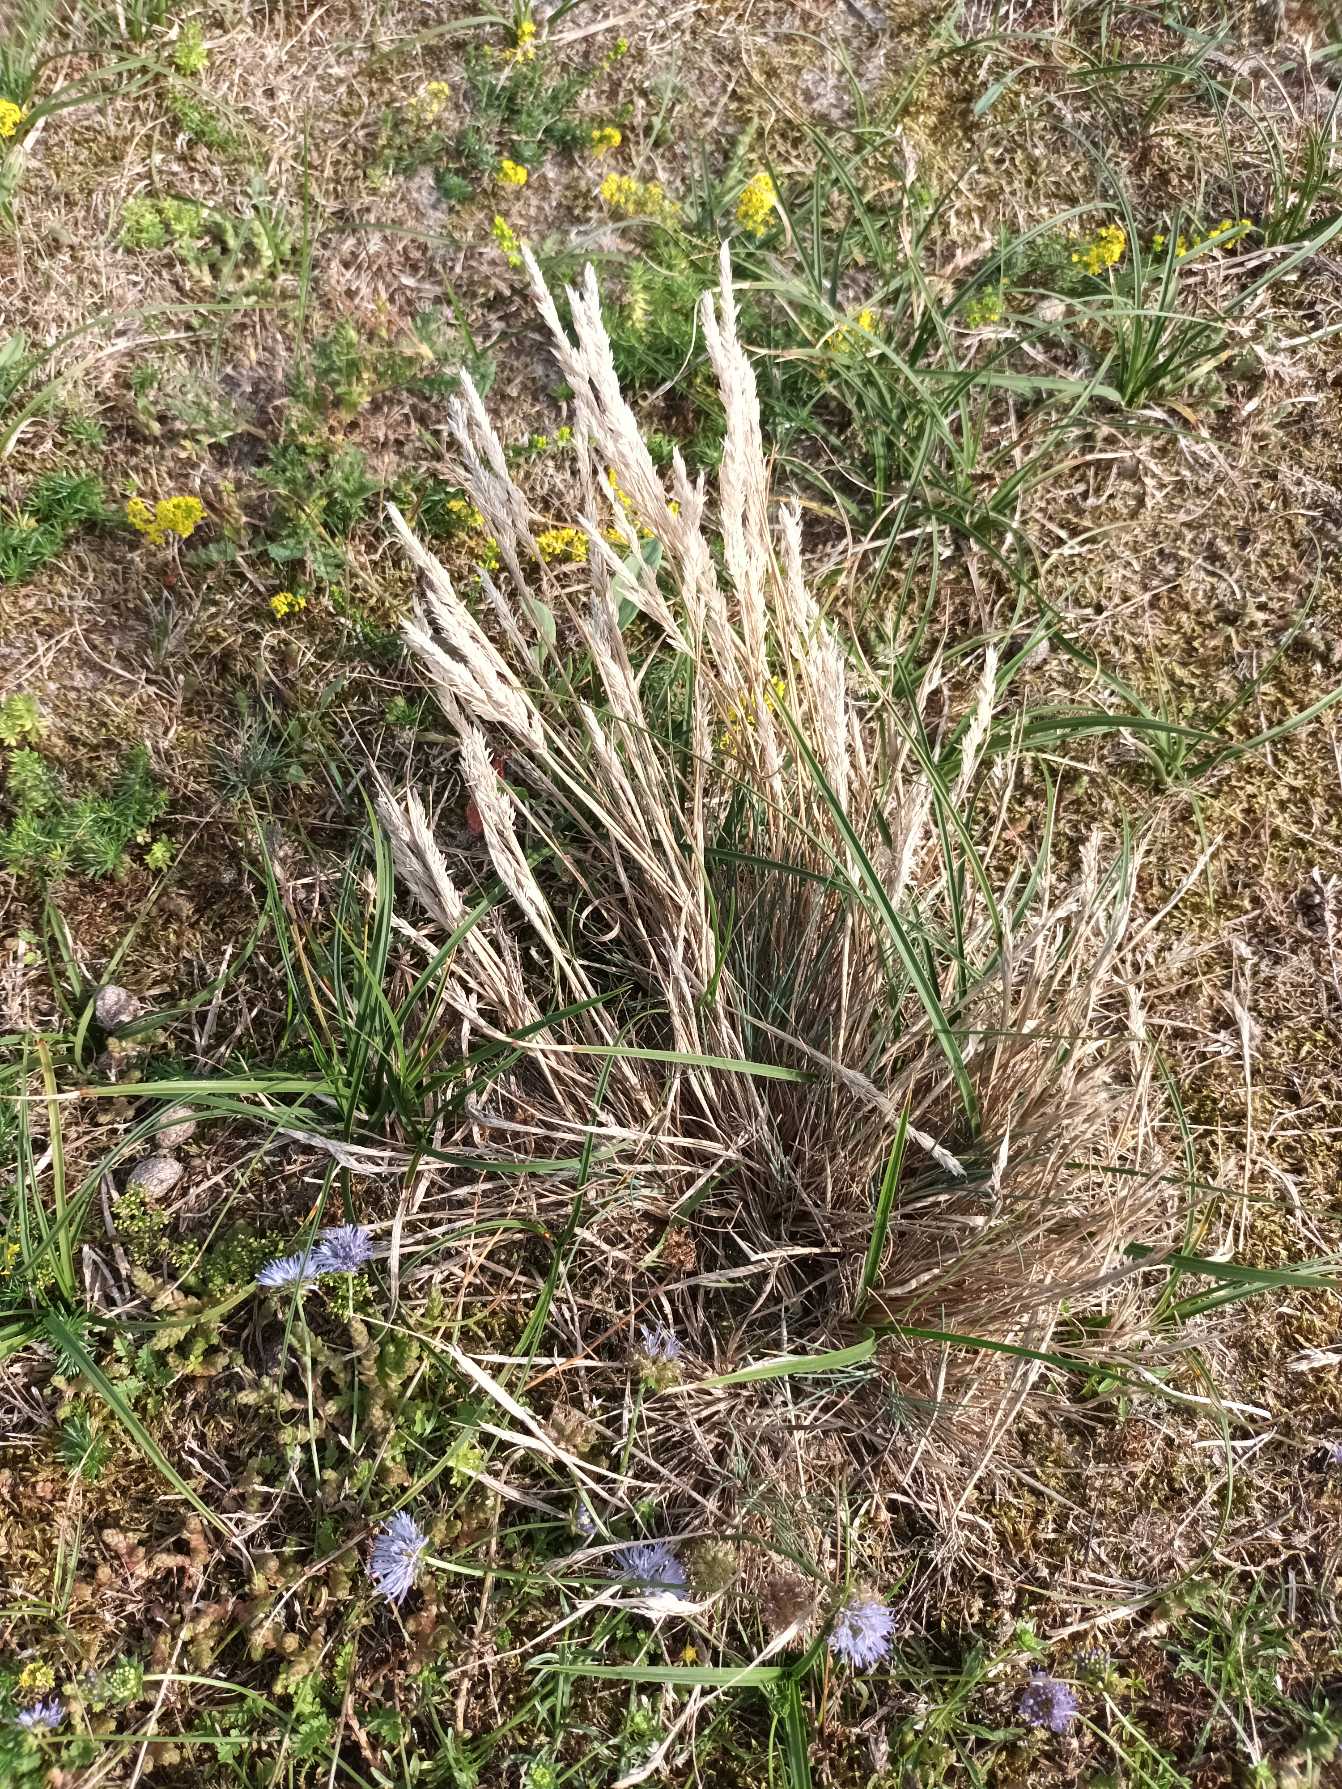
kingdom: Plantae
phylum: Tracheophyta
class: Liliopsida
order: Poales
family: Poaceae
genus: Corynephorus
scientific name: Corynephorus canescens
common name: Sandskæg
